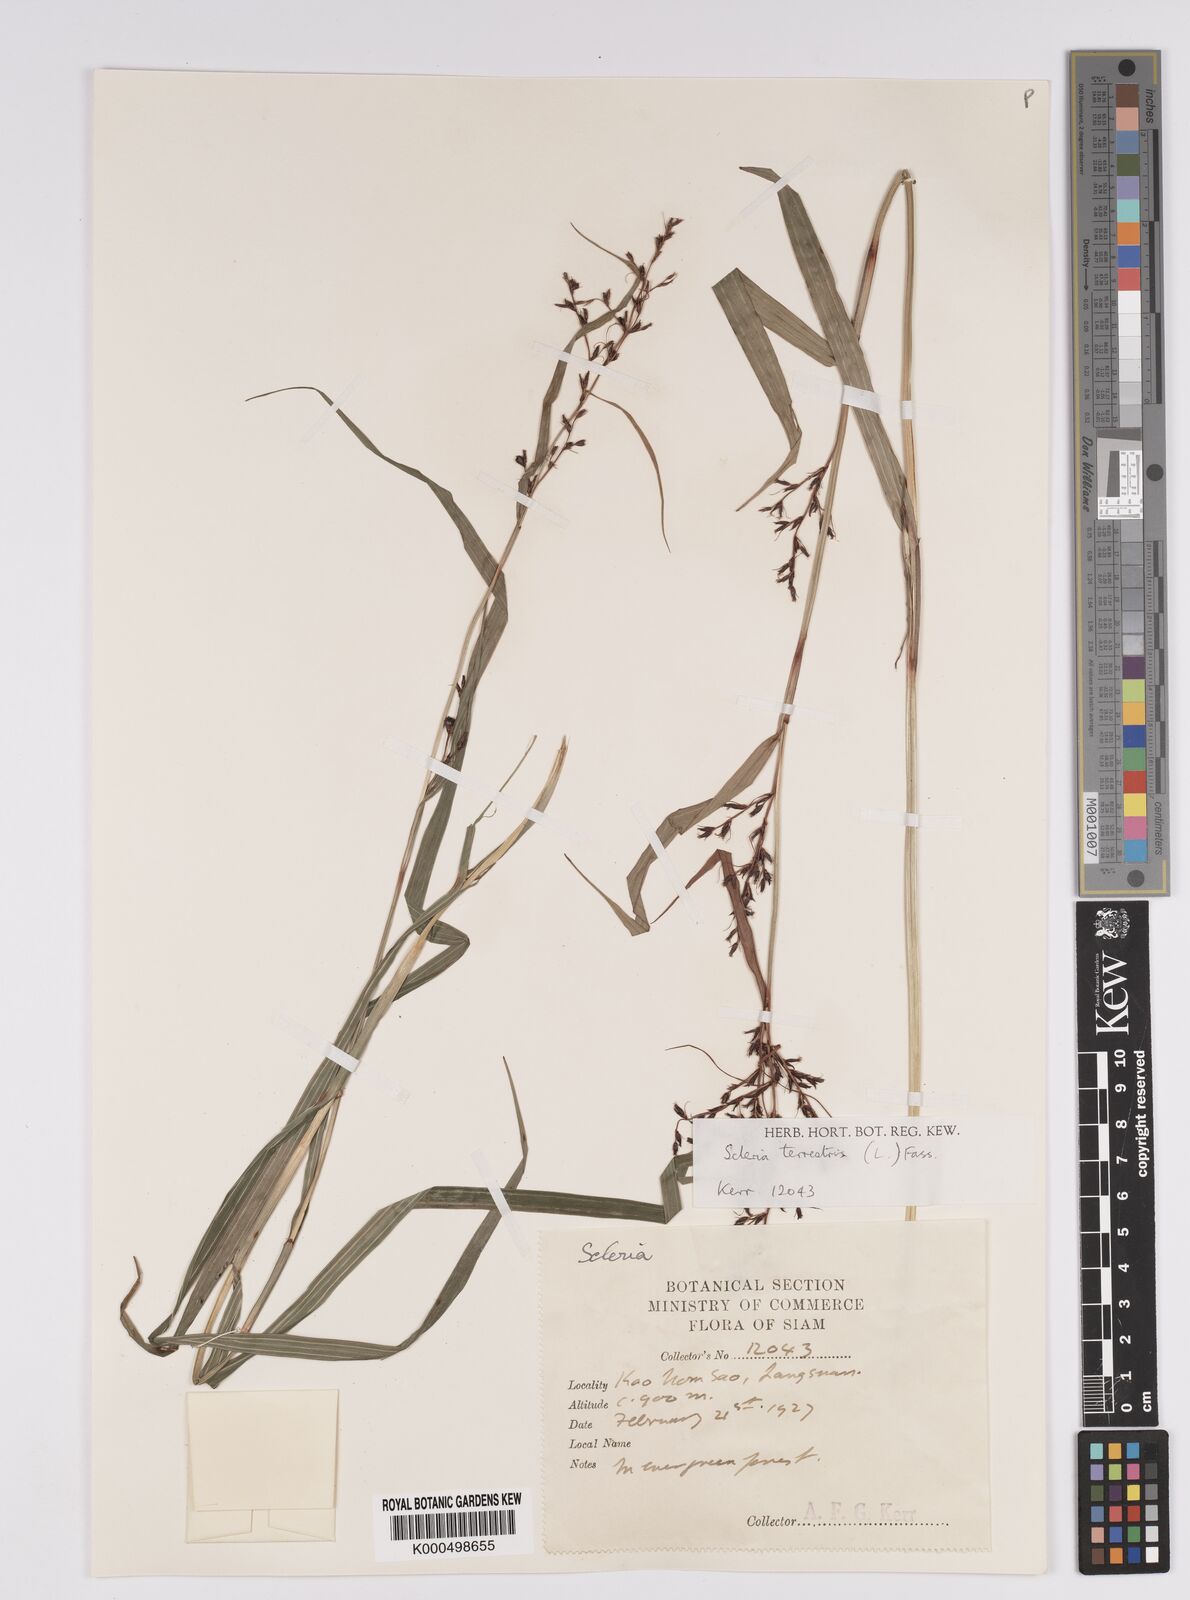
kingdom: Plantae
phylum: Tracheophyta
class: Liliopsida
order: Poales
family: Cyperaceae
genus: Scleria
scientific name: Scleria terrestris
